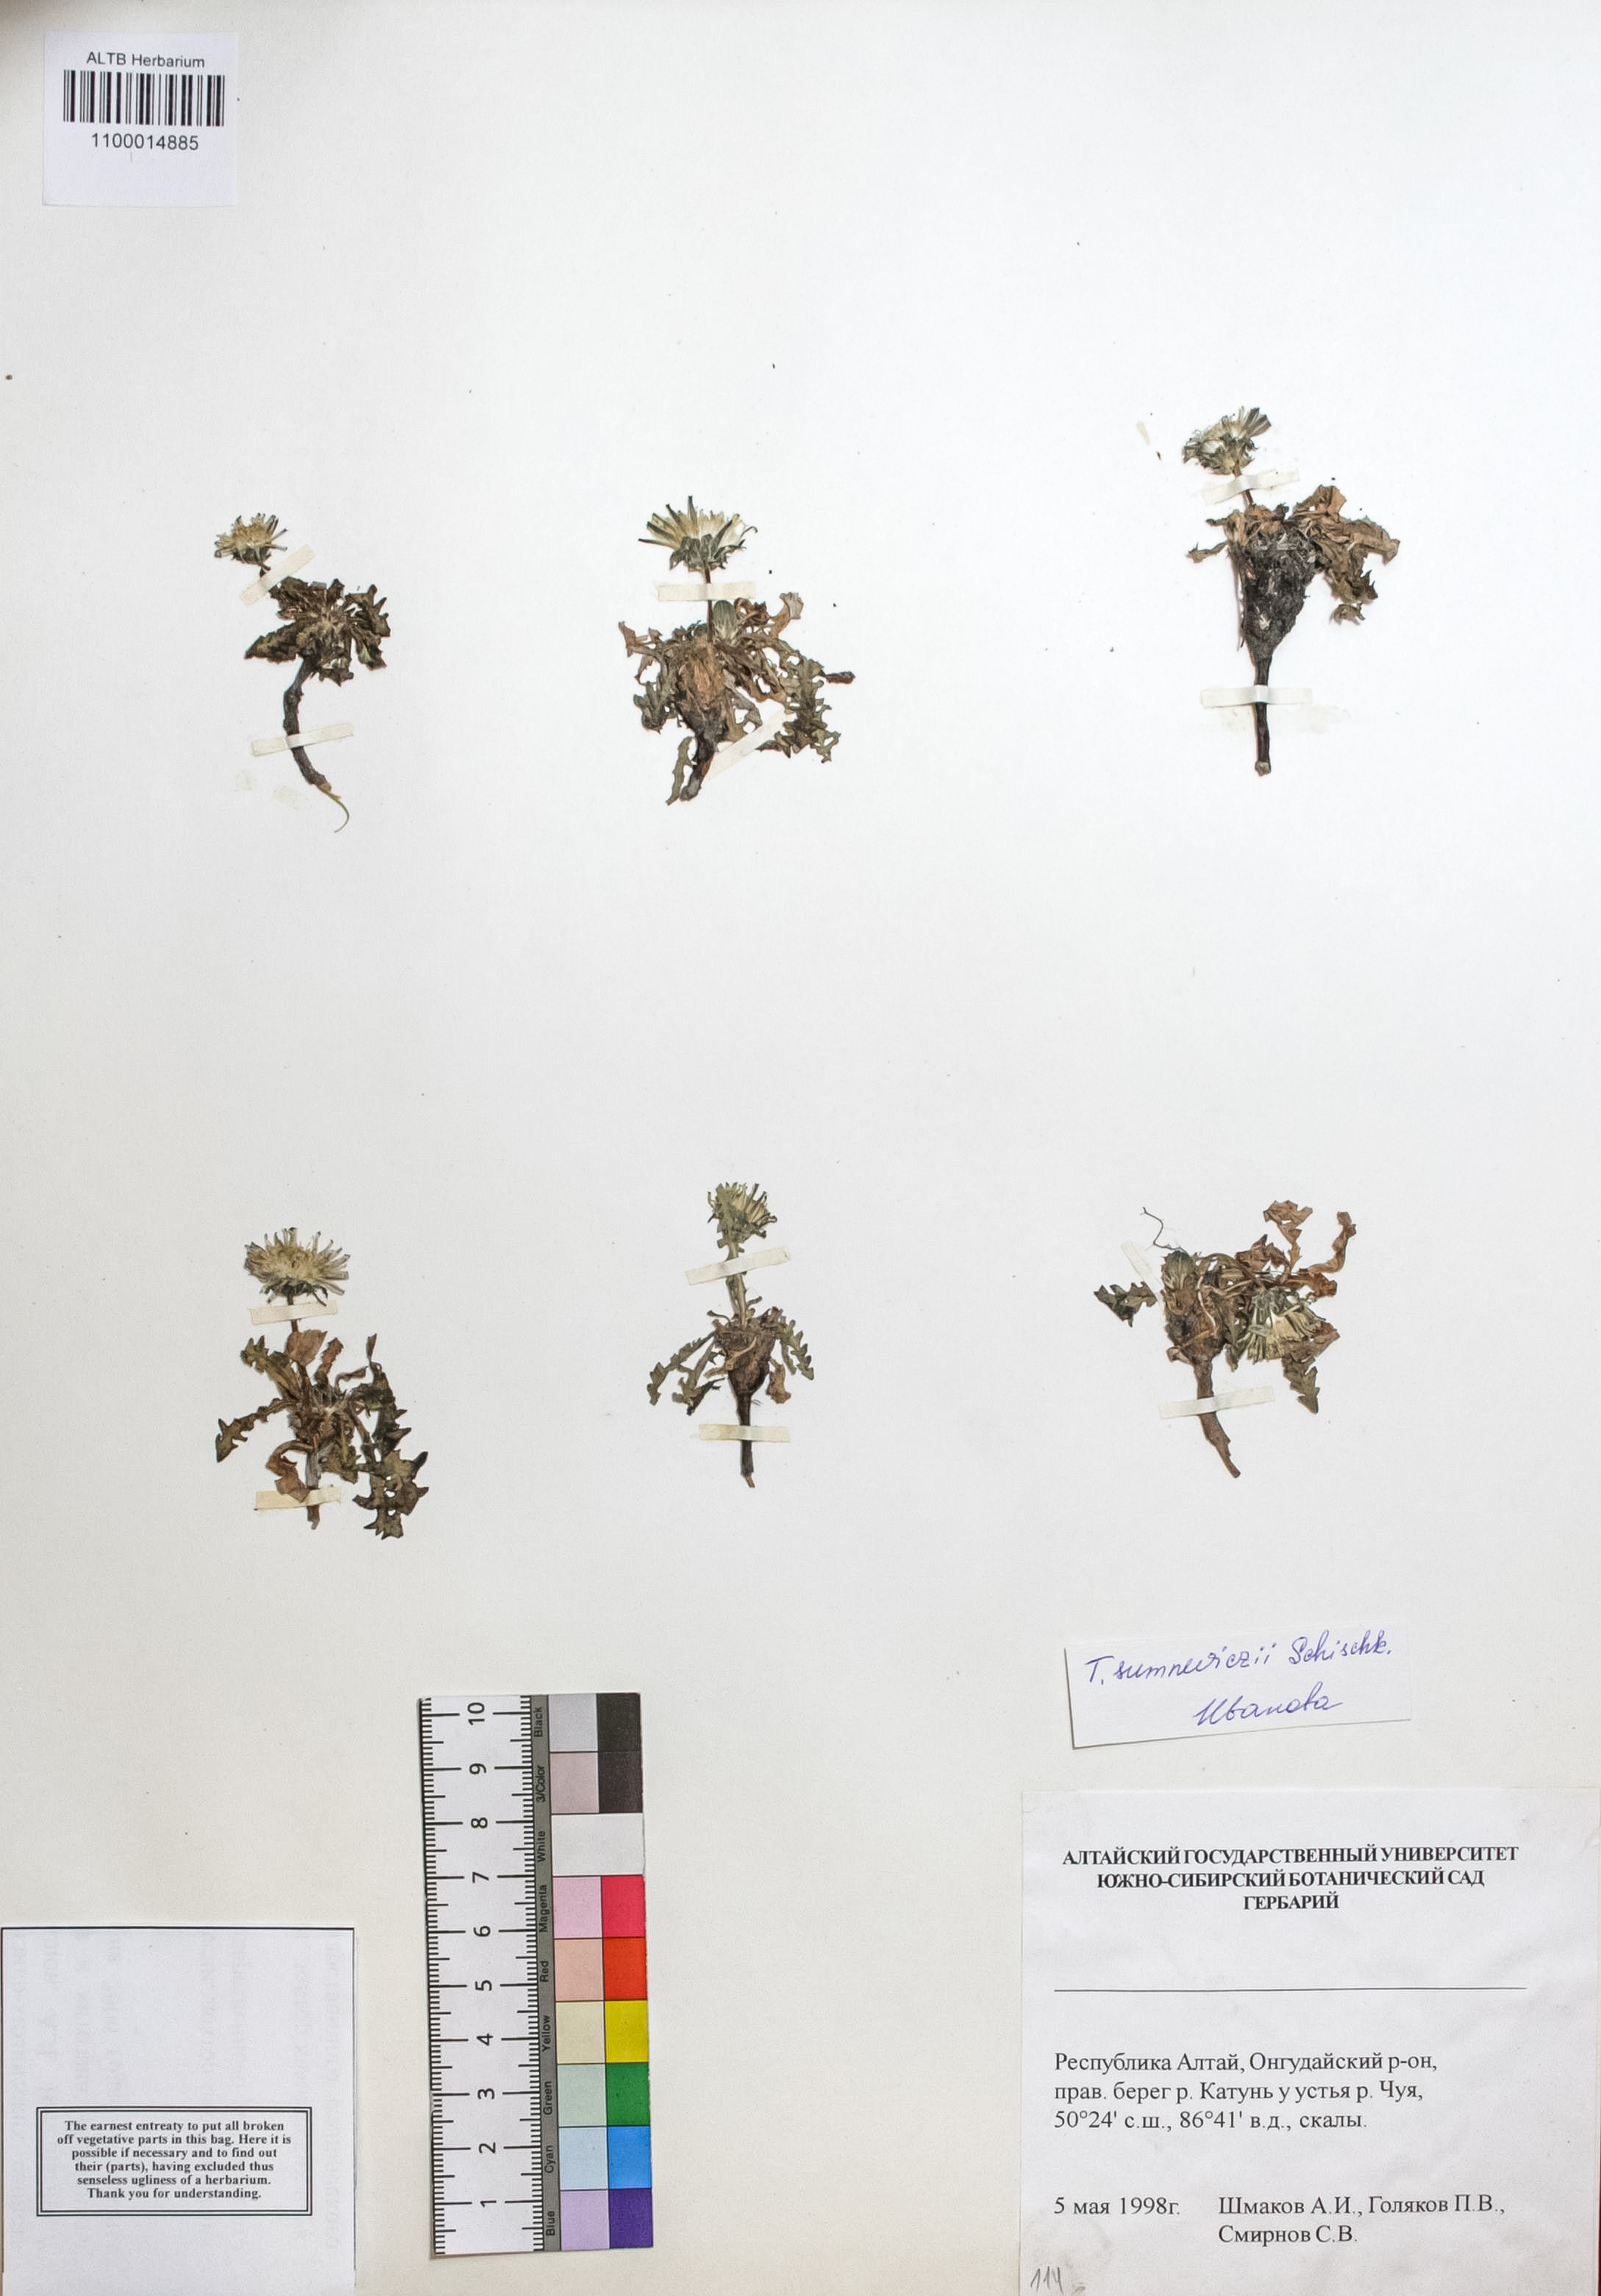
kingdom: Plantae
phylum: Tracheophyta
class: Magnoliopsida
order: Asterales
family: Asteraceae
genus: Taraxacum
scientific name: Taraxacum sumneviczii
